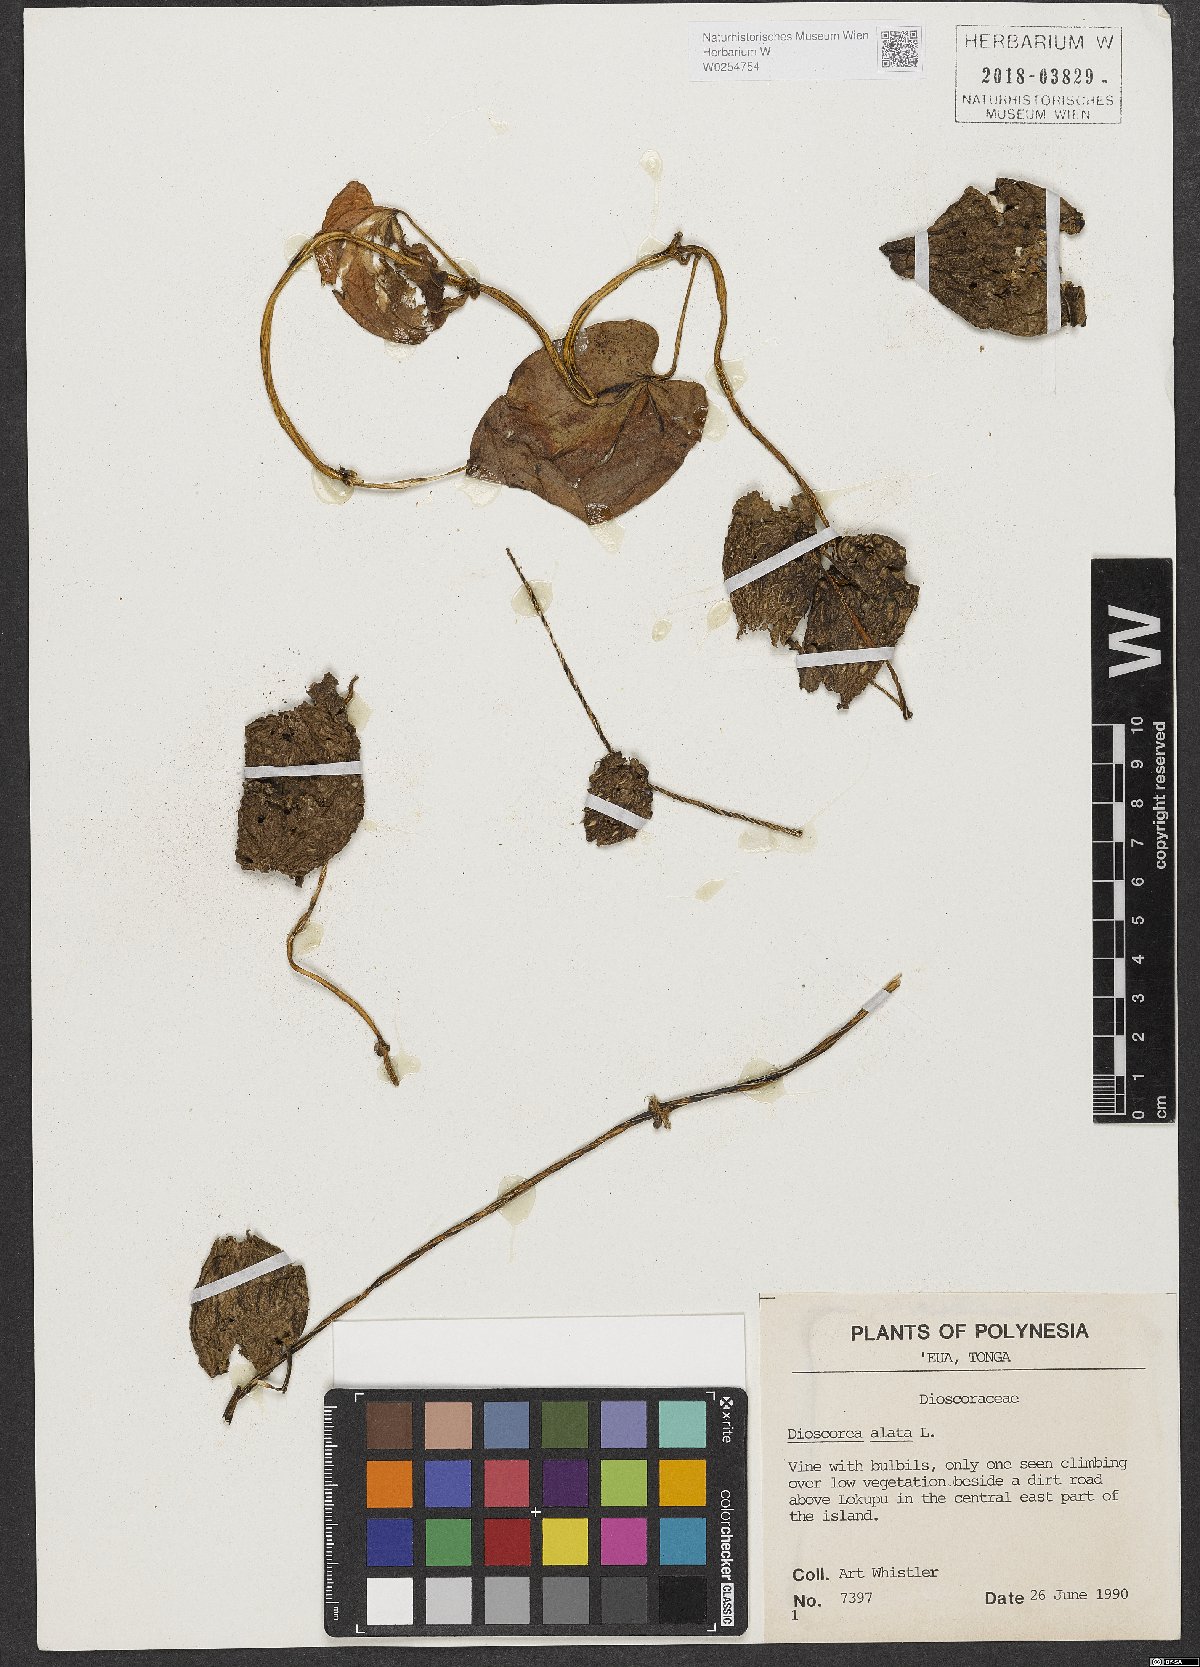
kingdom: Plantae
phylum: Tracheophyta
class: Liliopsida
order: Dioscoreales
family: Dioscoreaceae
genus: Dioscorea
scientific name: Dioscorea alata
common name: Water yam
